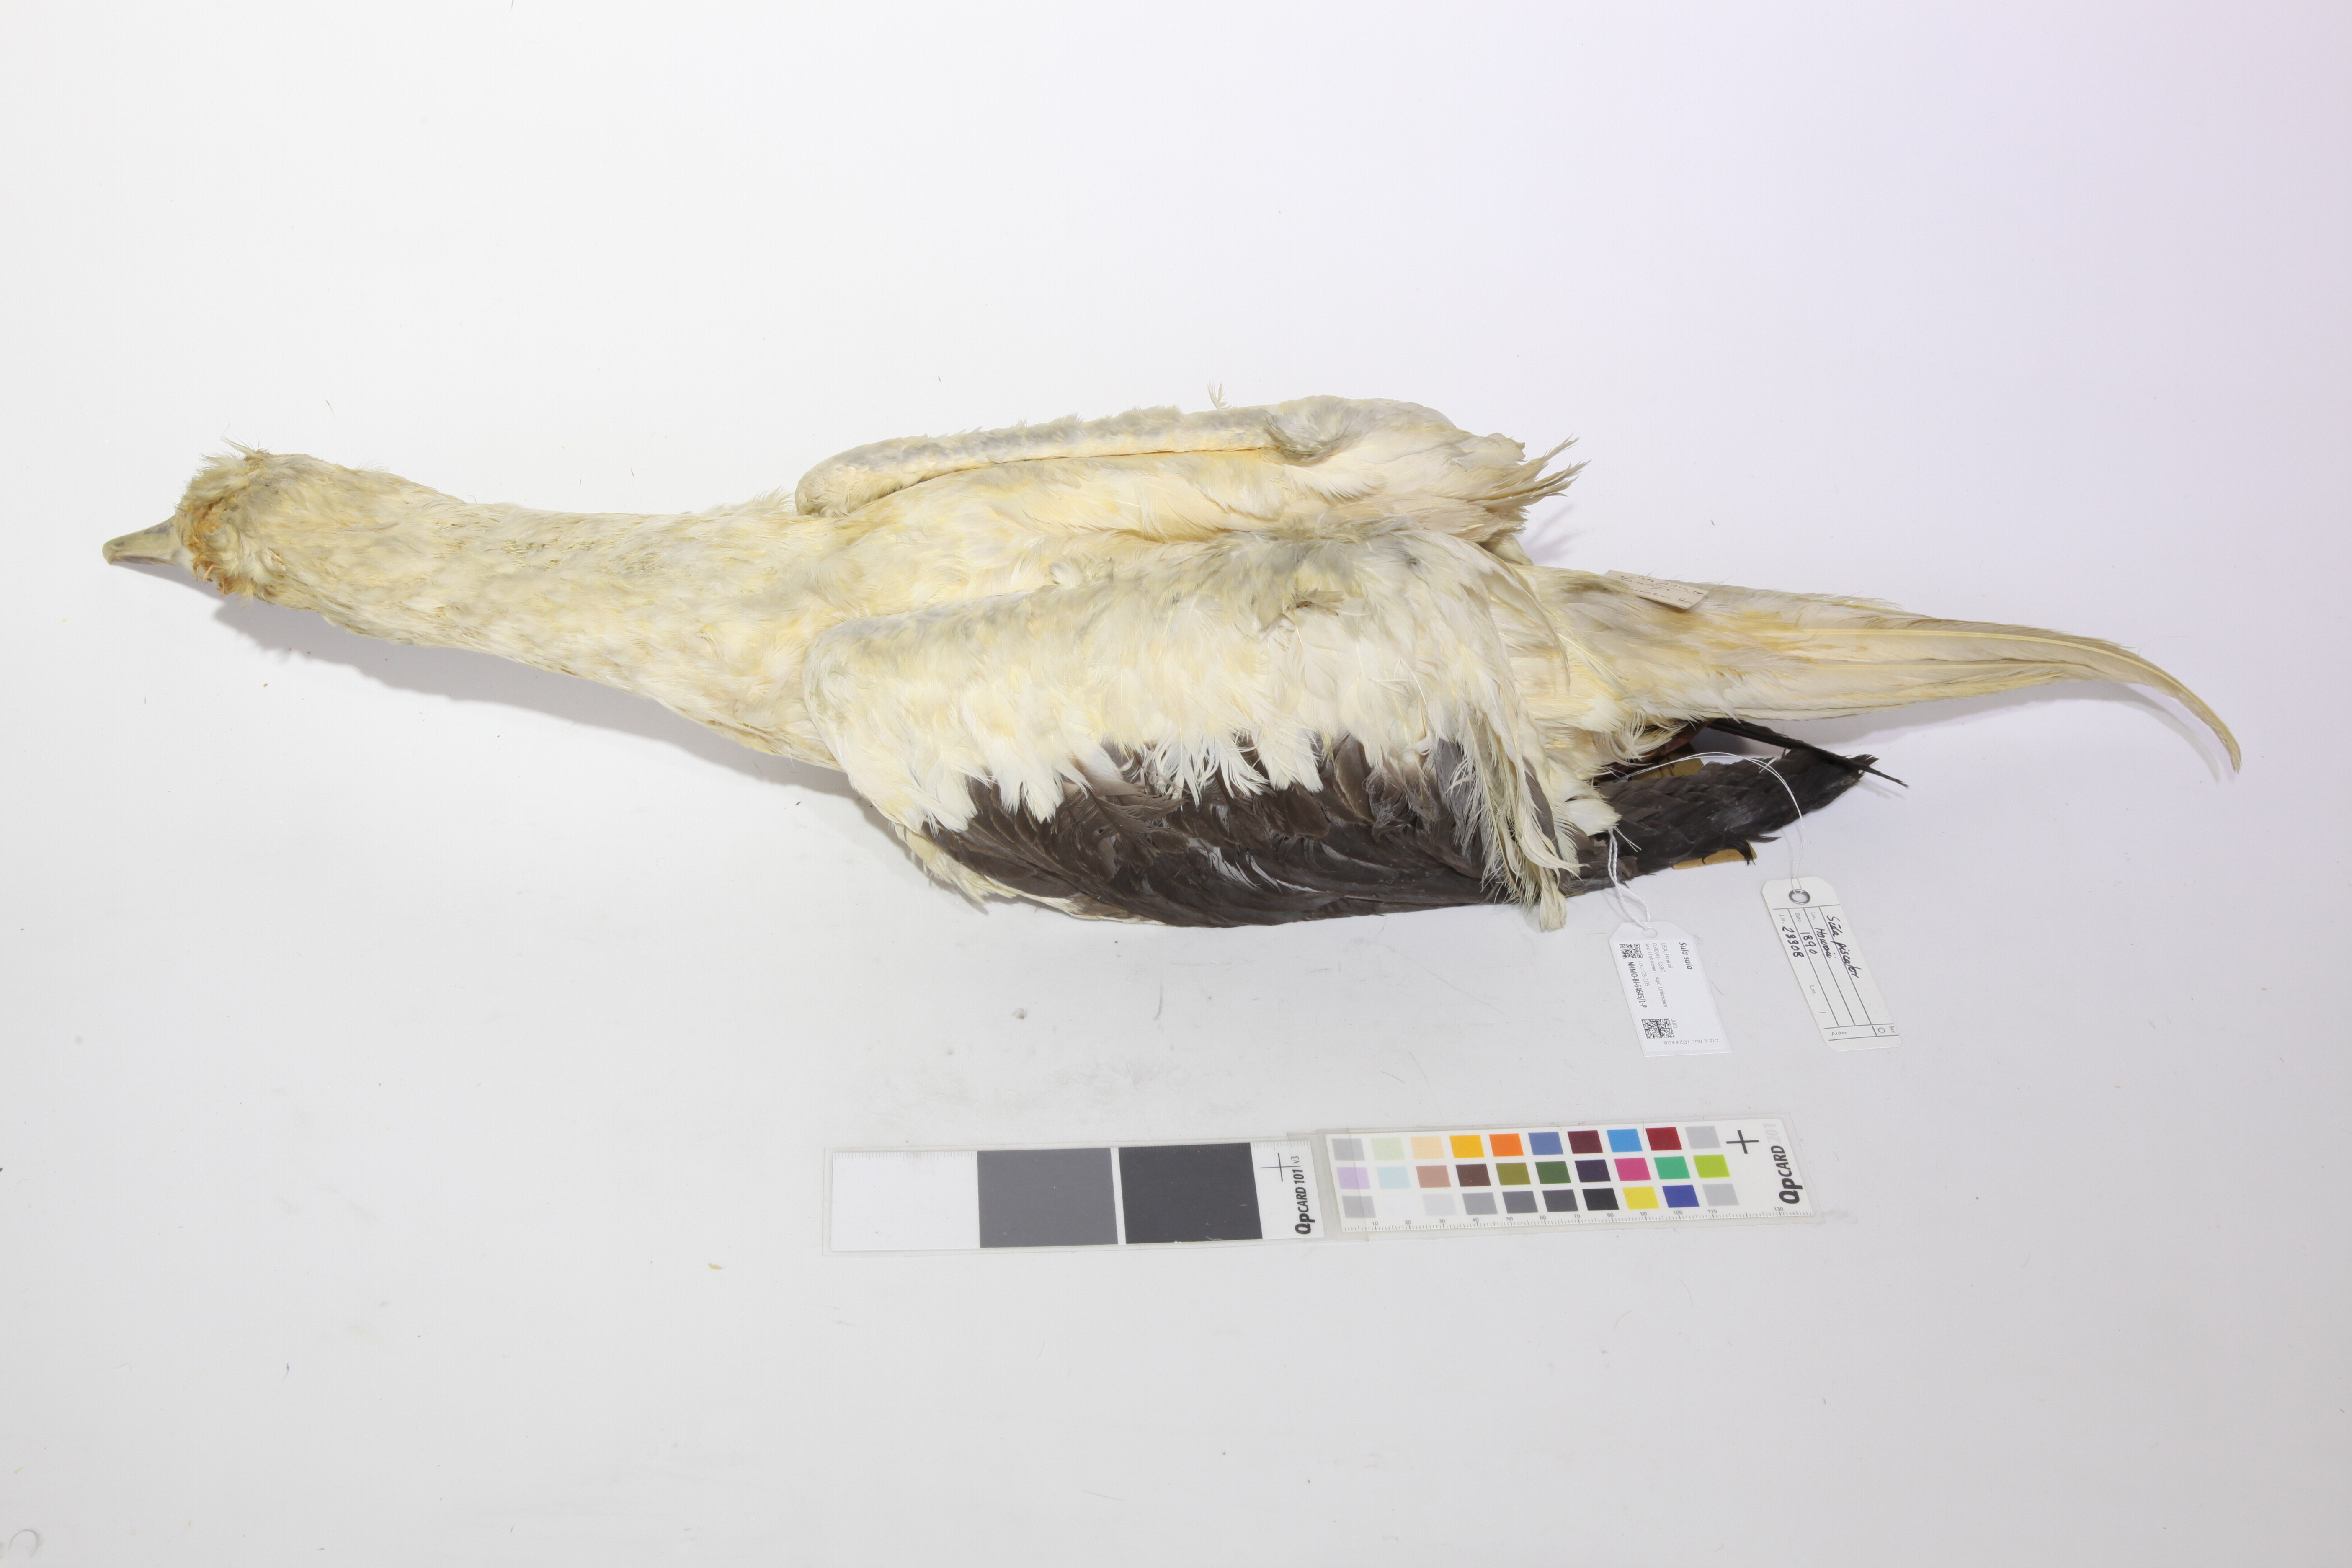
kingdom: Animalia
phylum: Chordata
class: Aves
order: Suliformes
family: Sulidae
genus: Sula
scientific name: Sula sula
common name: Red-footed booby
